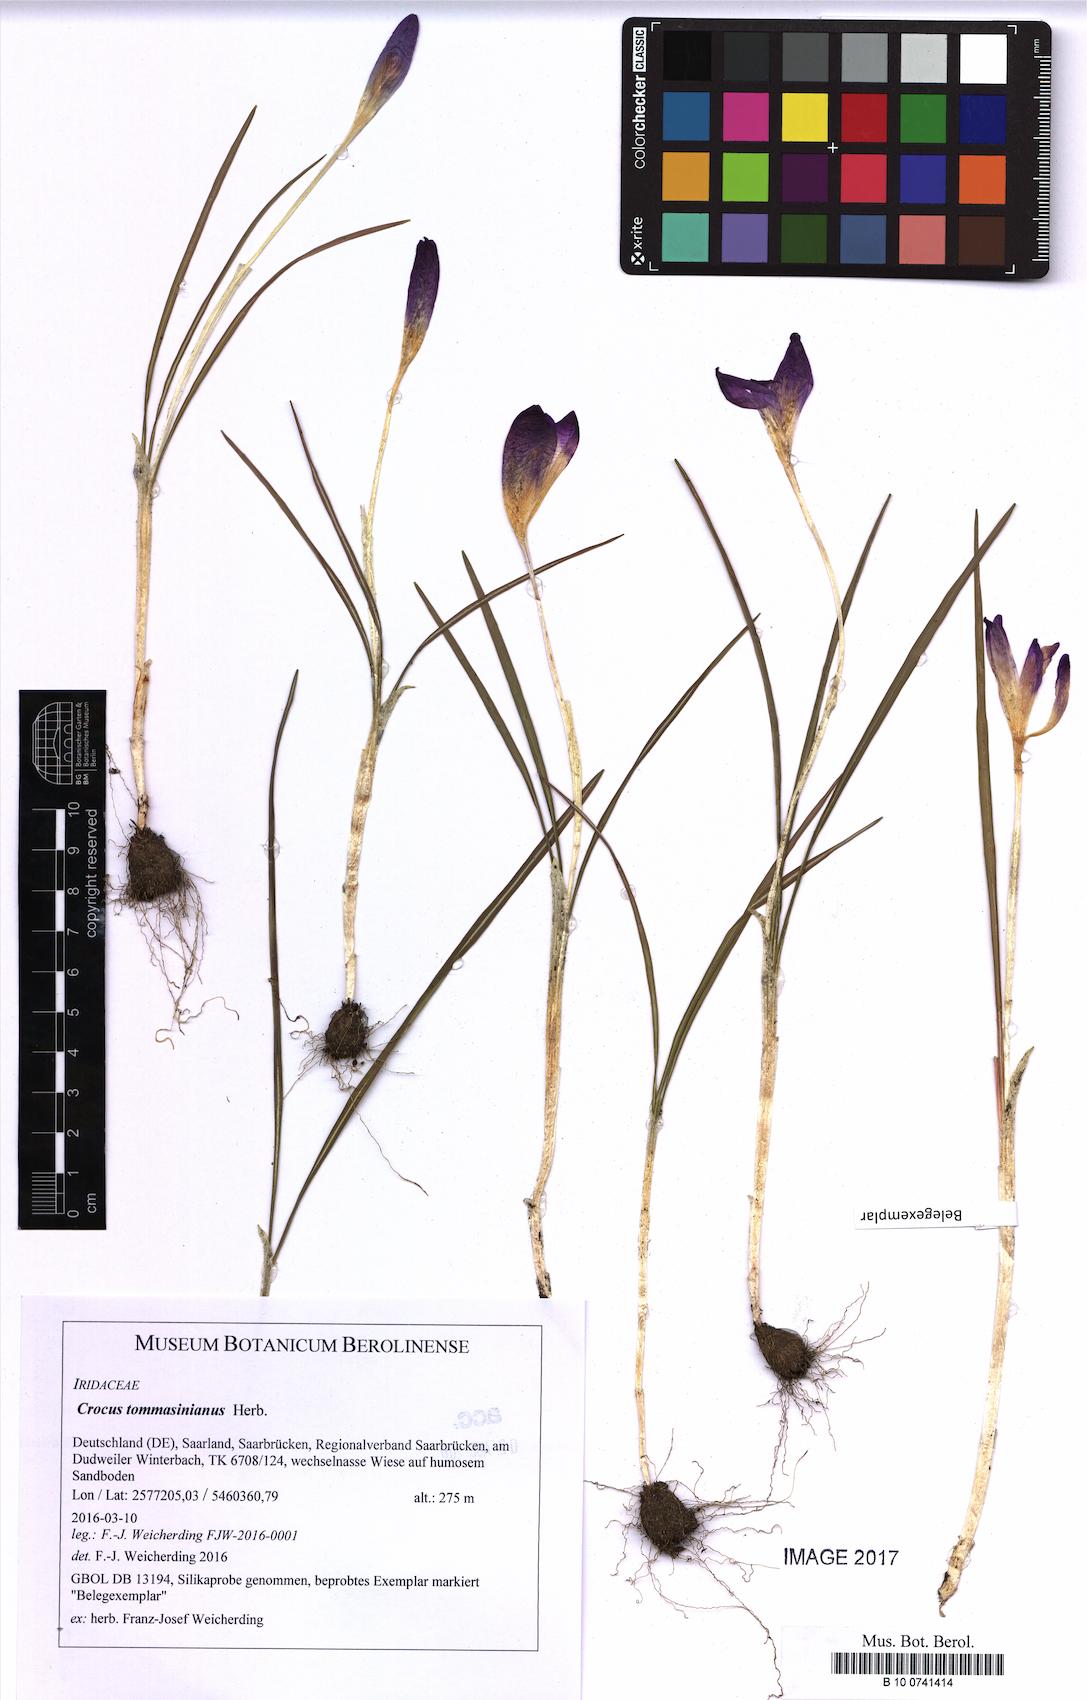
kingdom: Plantae
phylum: Tracheophyta
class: Liliopsida
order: Asparagales
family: Iridaceae
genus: Crocus
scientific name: Crocus tommasinianus
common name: Early crocus
